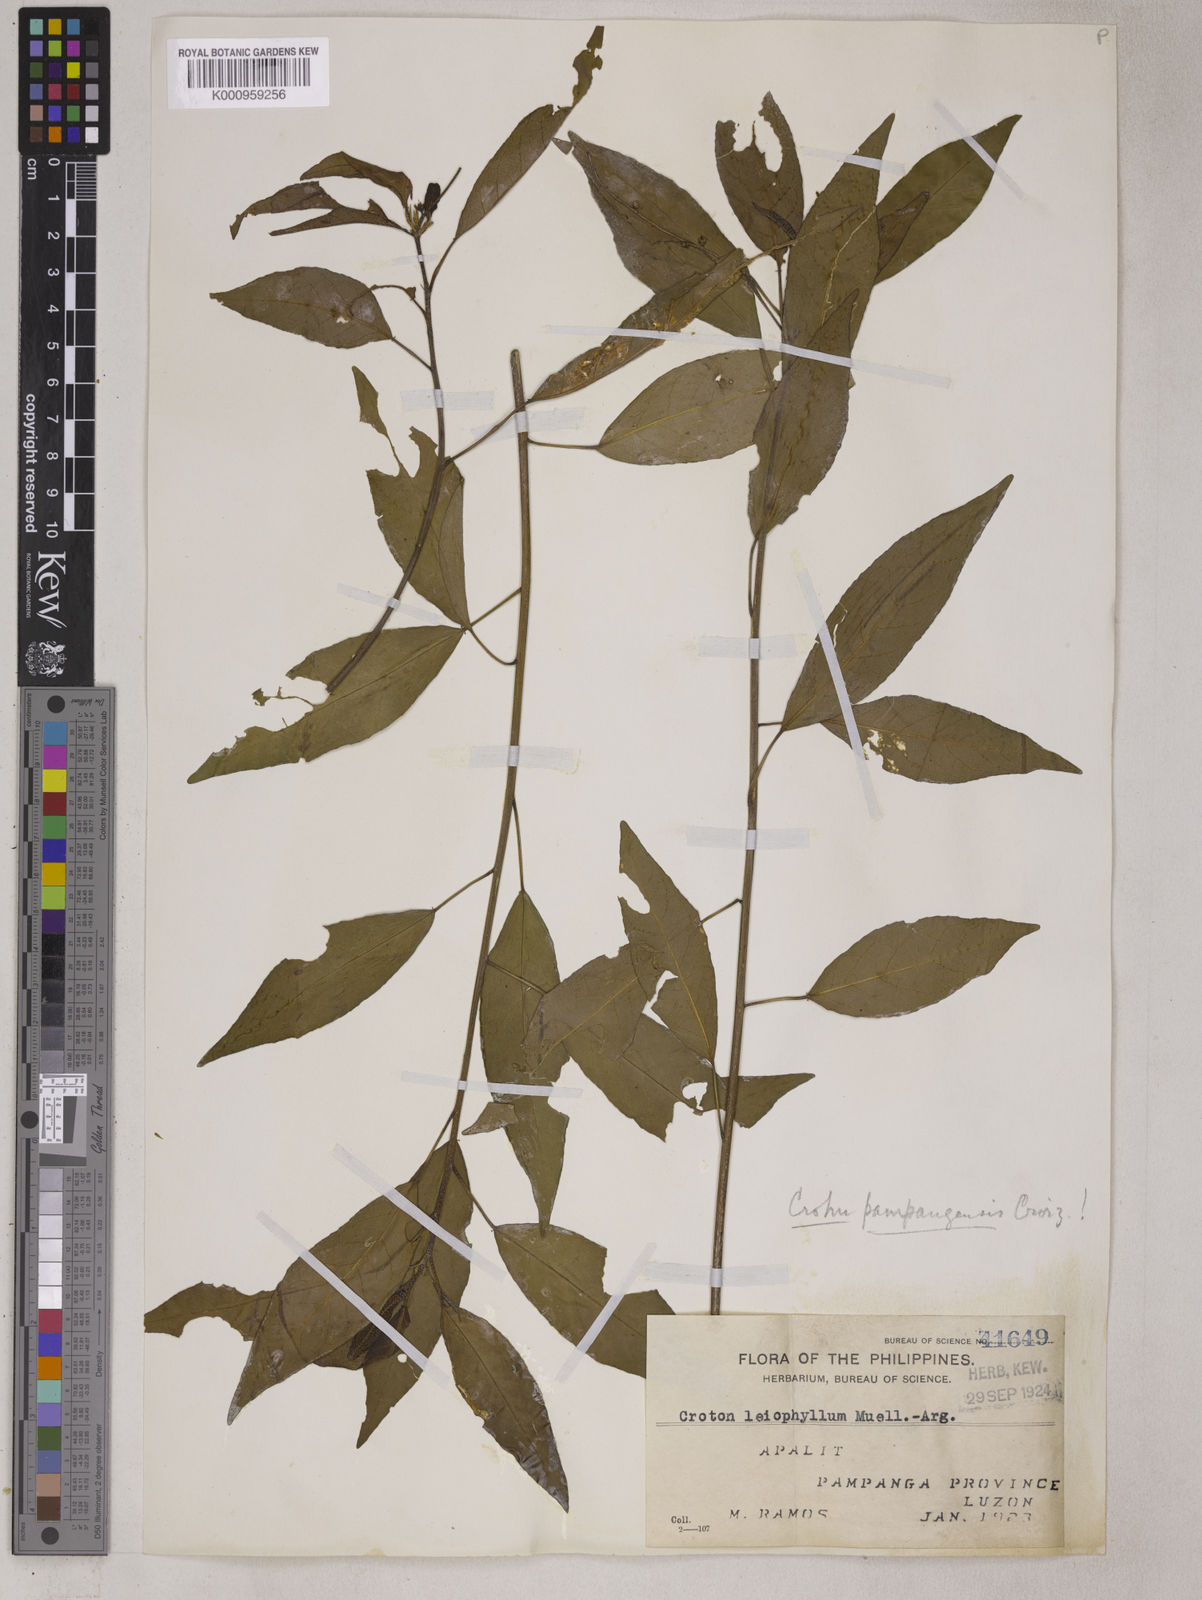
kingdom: Plantae
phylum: Tracheophyta
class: Magnoliopsida
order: Malpighiales
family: Euphorbiaceae
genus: Croton
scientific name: Croton pampangensis
